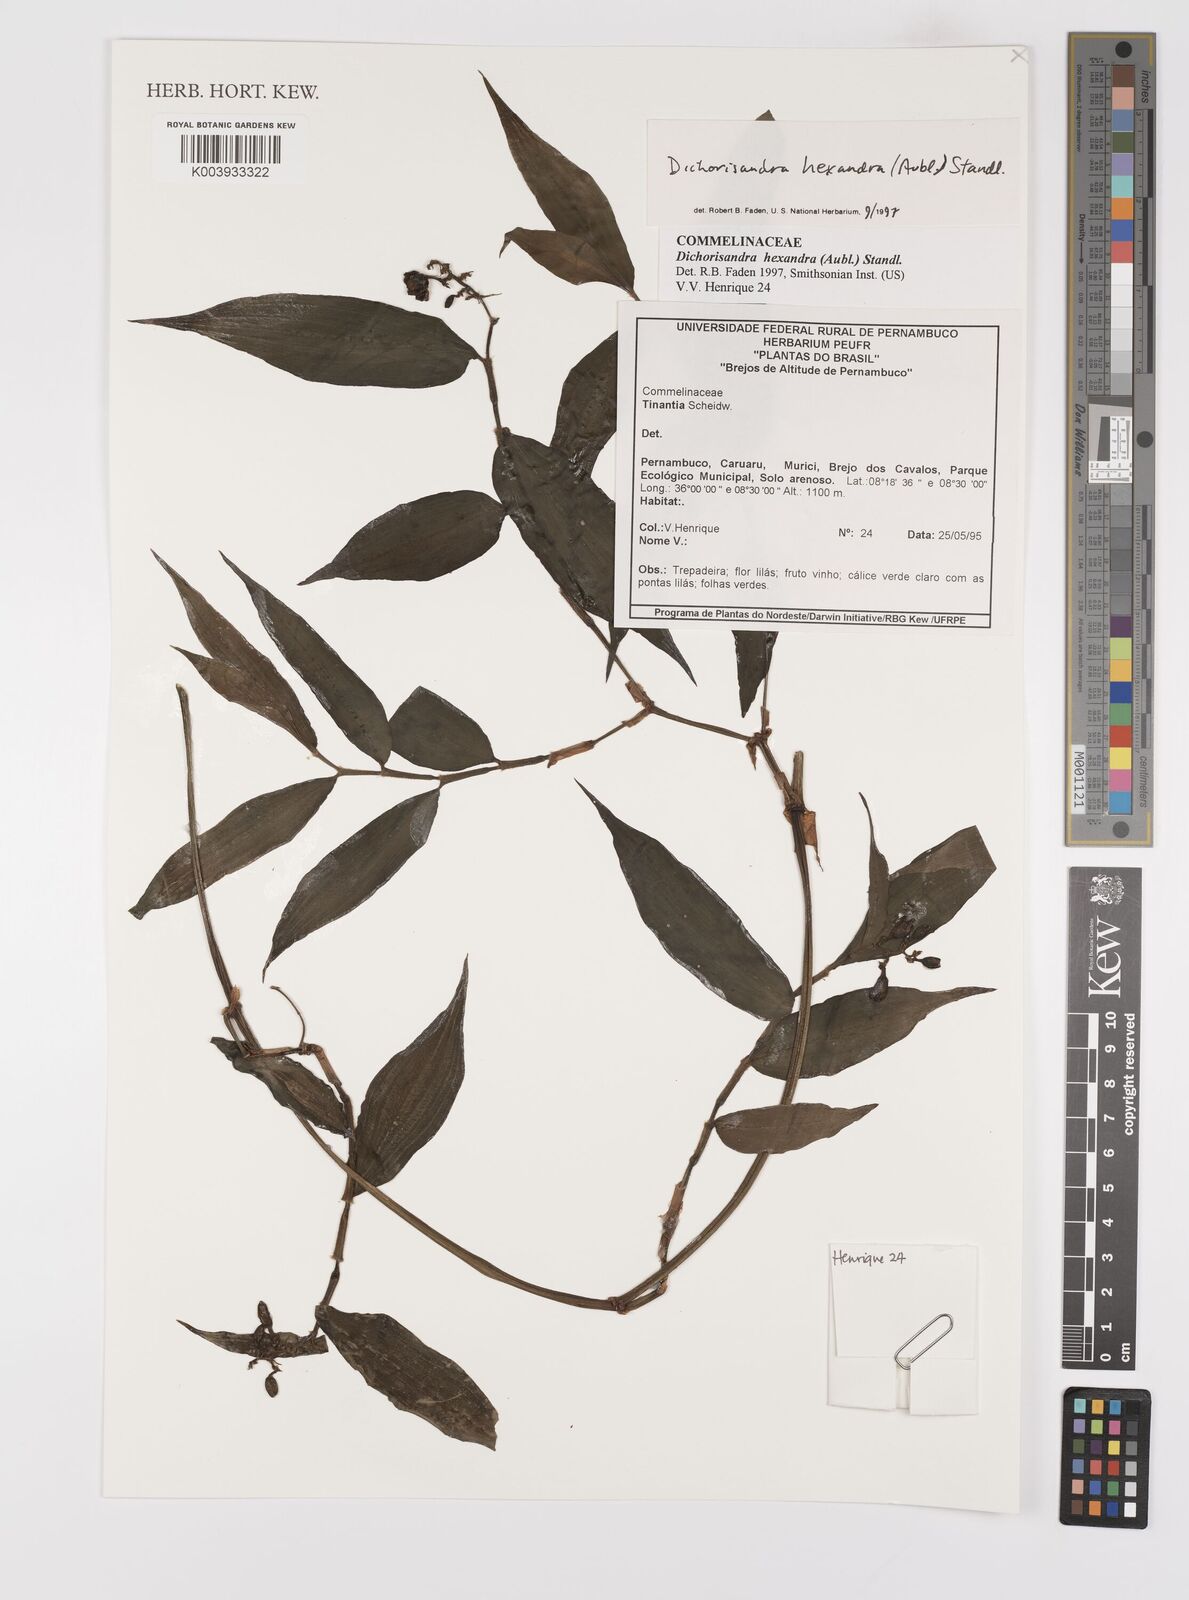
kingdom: Plantae
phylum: Tracheophyta
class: Liliopsida
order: Commelinales
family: Commelinaceae
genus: Dichorisandra
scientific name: Dichorisandra hexandra
